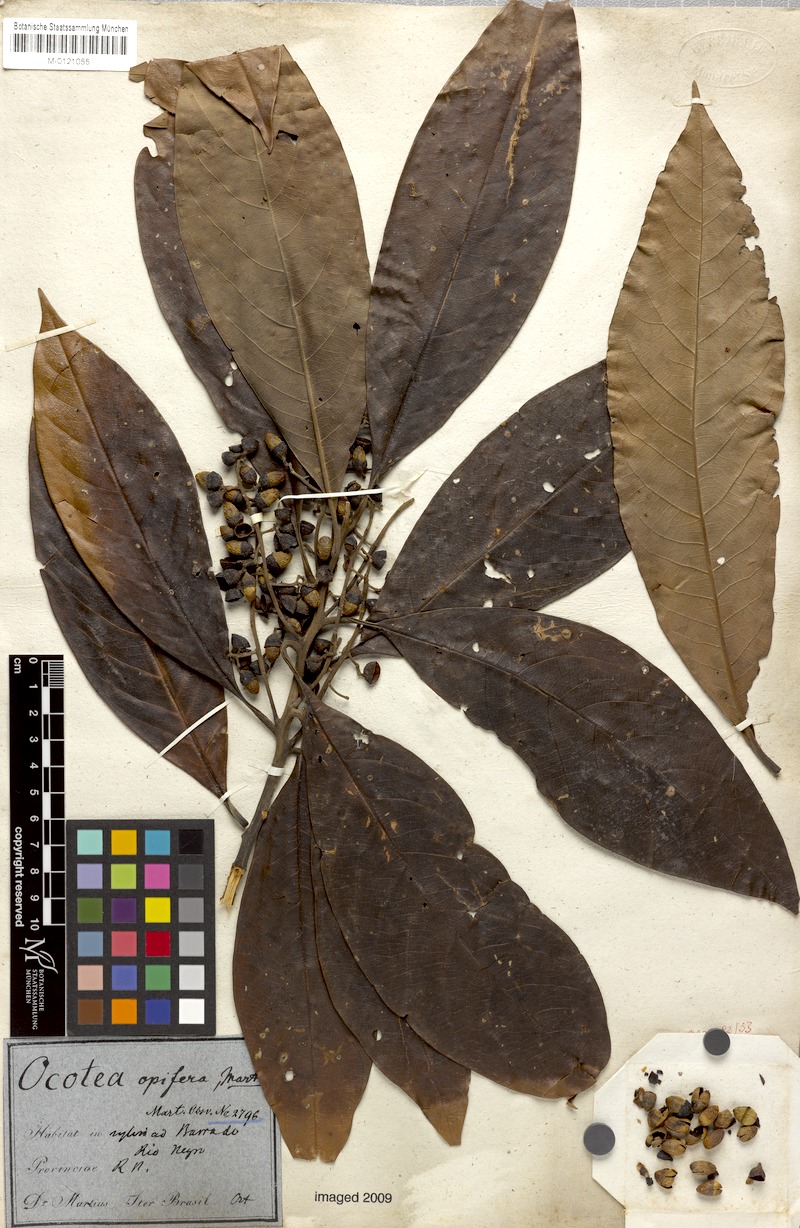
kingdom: Plantae
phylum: Tracheophyta
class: Magnoliopsida
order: Laurales
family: Lauraceae
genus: Mespilodaphne
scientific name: Mespilodaphne opifera
